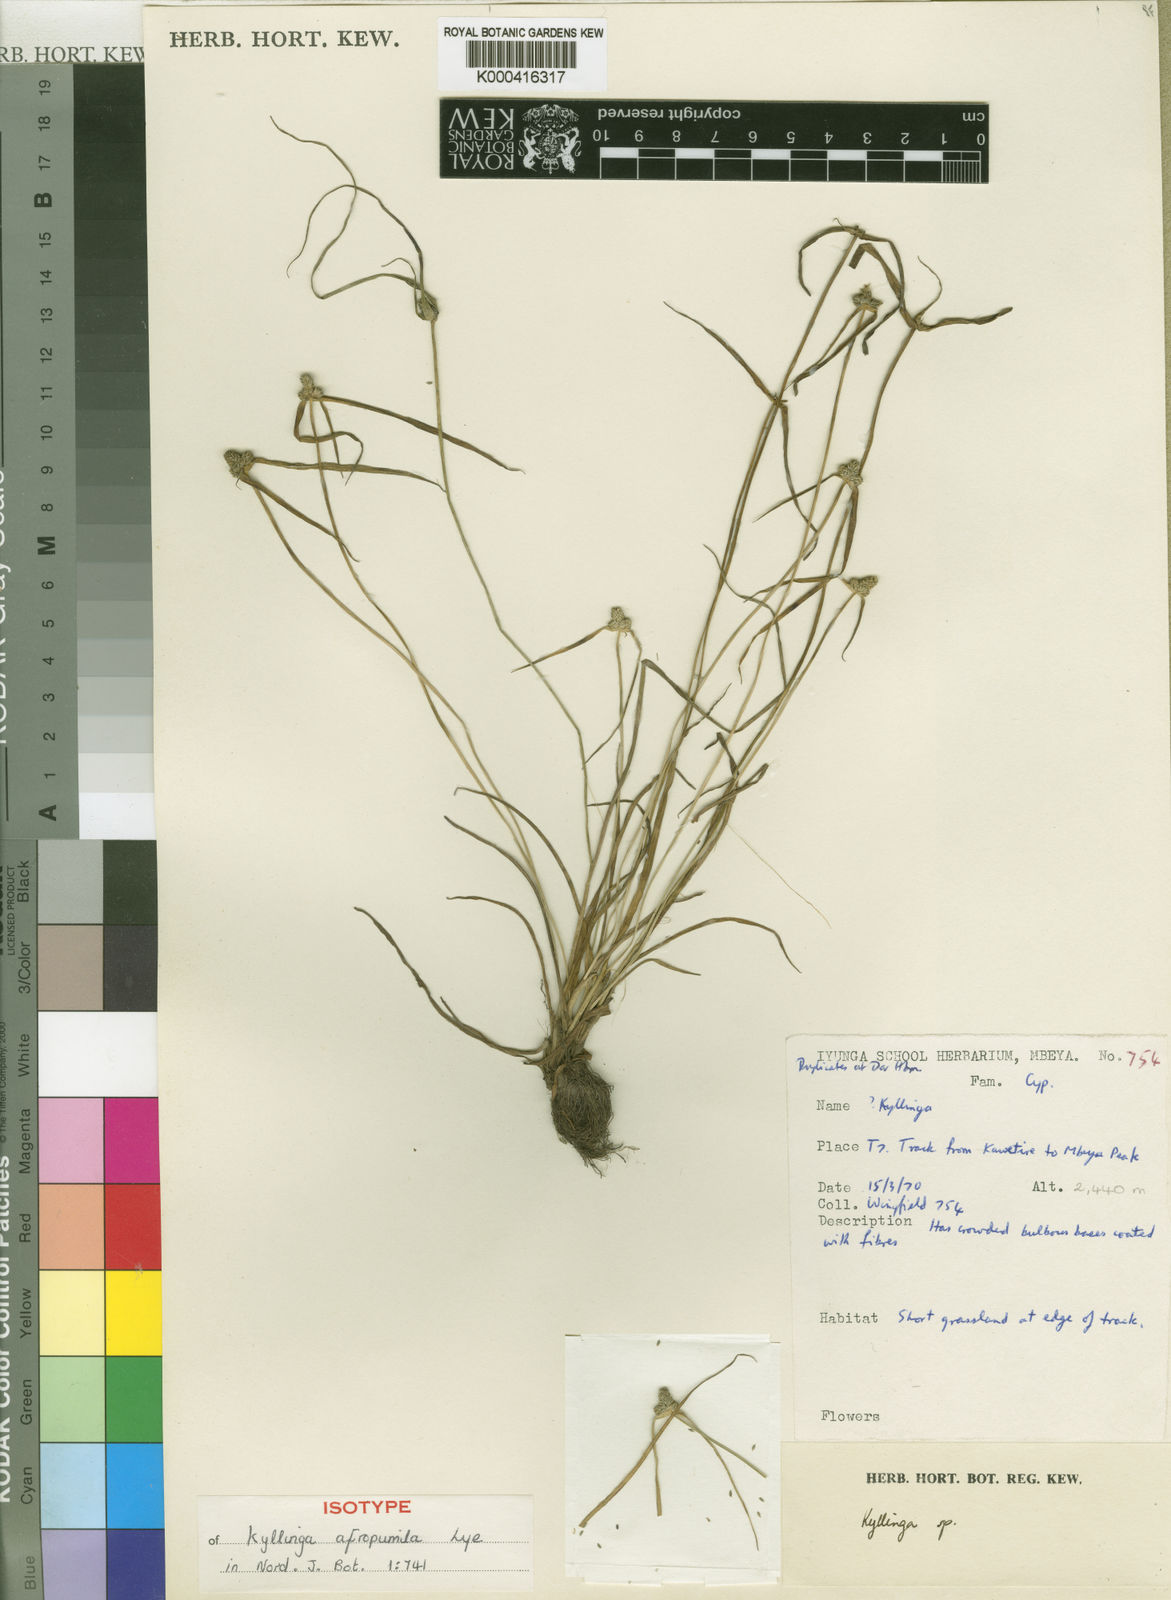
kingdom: Plantae
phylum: Tracheophyta
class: Liliopsida
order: Poales
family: Cyperaceae
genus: Cyperus
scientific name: Cyperus afropumilus
